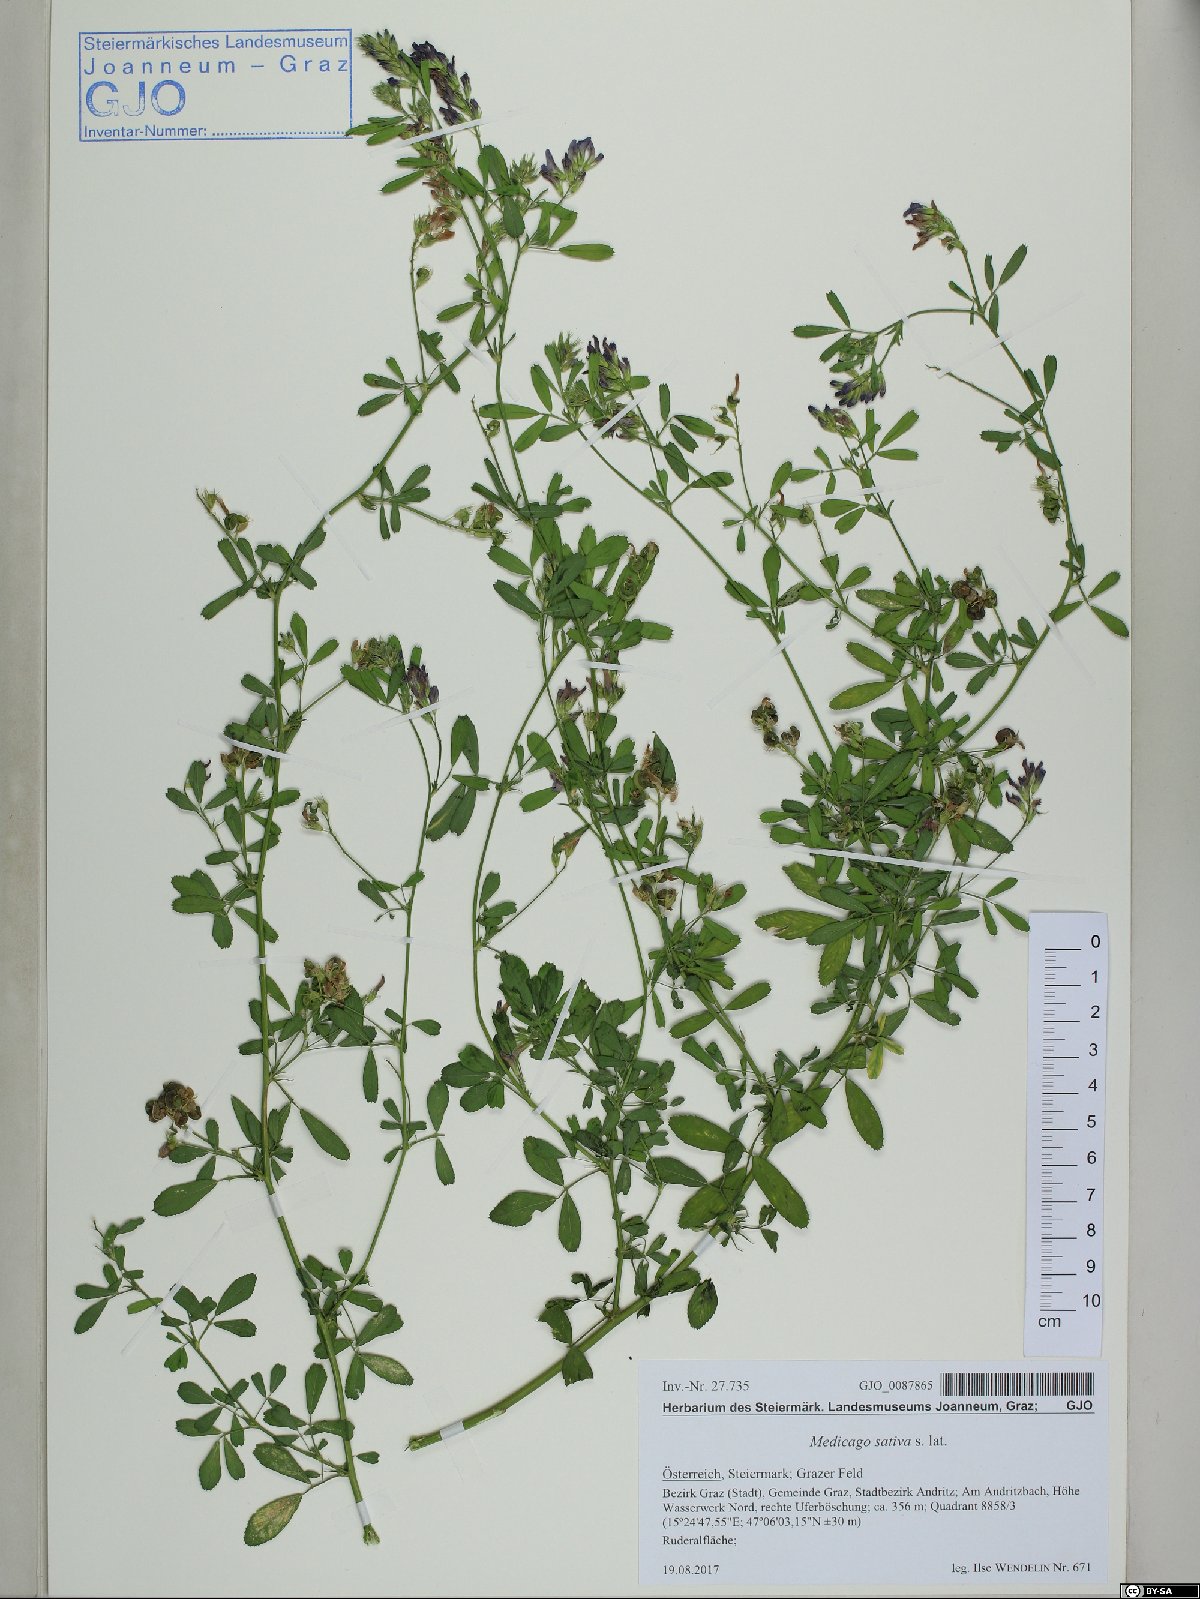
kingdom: Plantae
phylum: Tracheophyta
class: Magnoliopsida
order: Fabales
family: Fabaceae
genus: Medicago
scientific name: Medicago sativa
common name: Alfalfa
